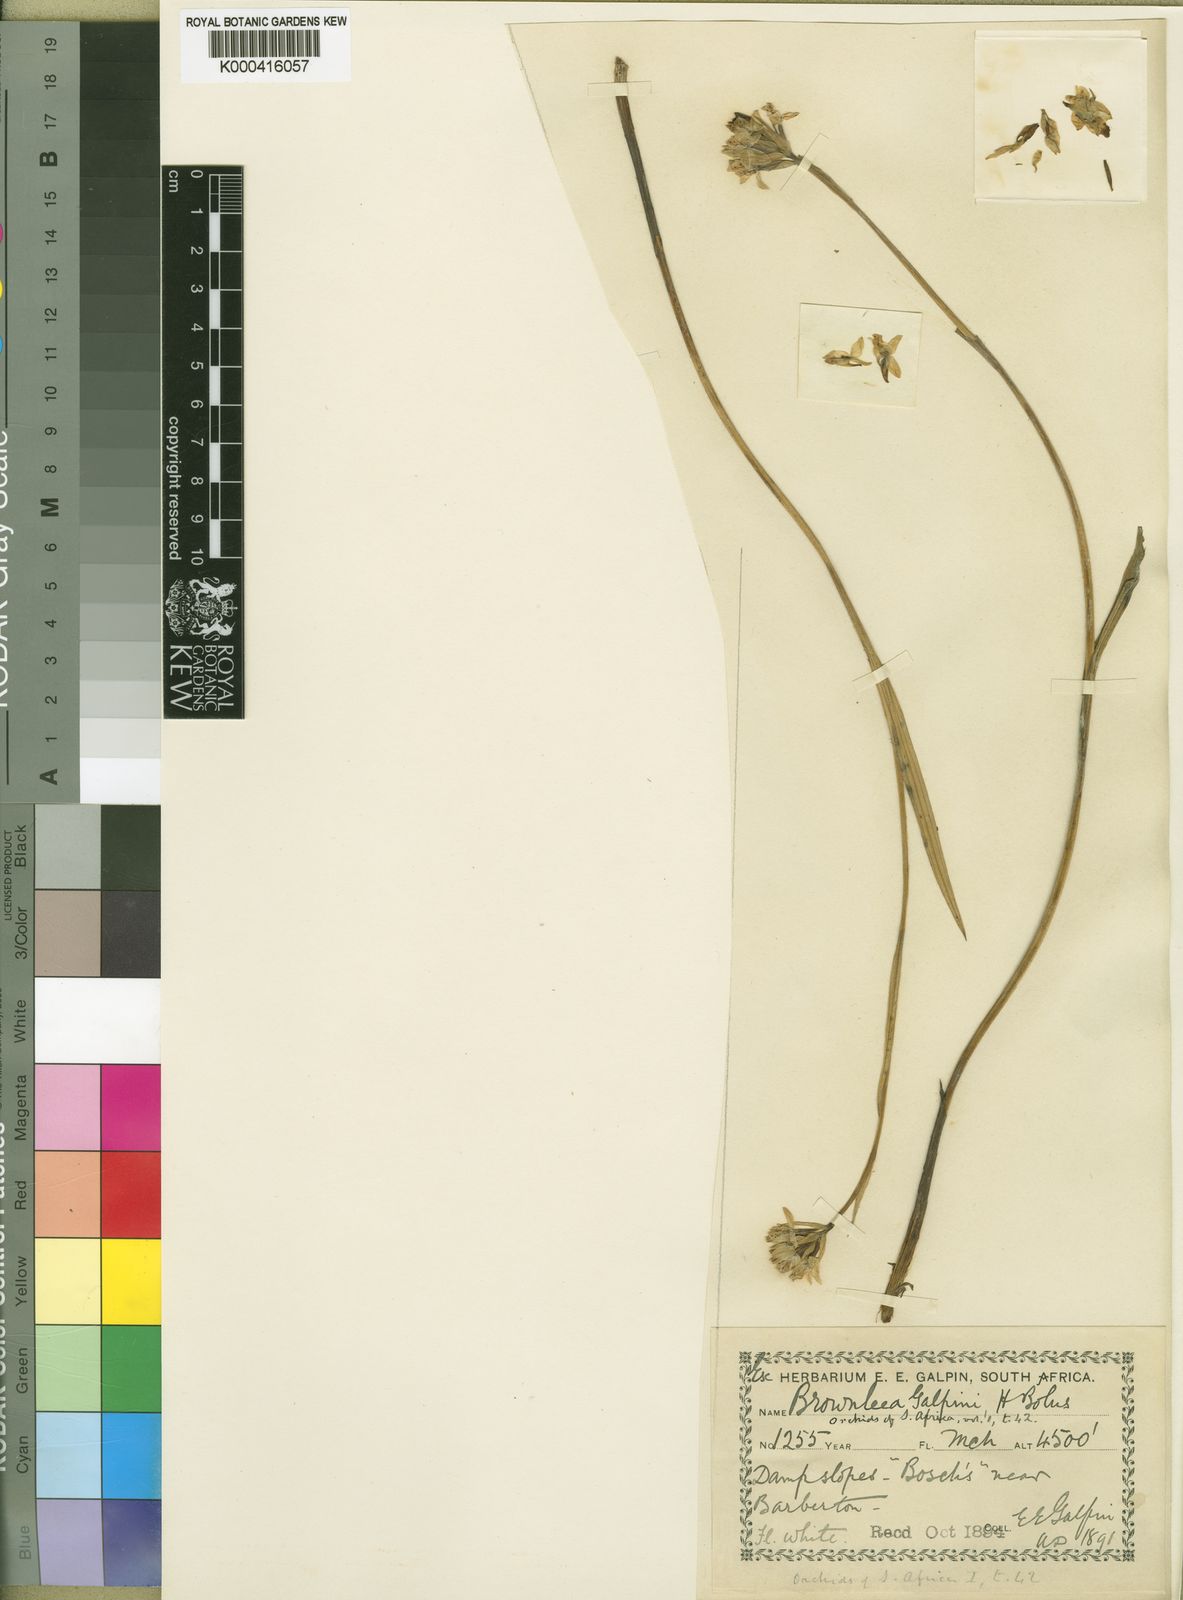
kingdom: Plantae
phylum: Tracheophyta
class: Liliopsida
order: Asparagales
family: Orchidaceae
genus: Brownleea
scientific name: Brownleea galpinii
